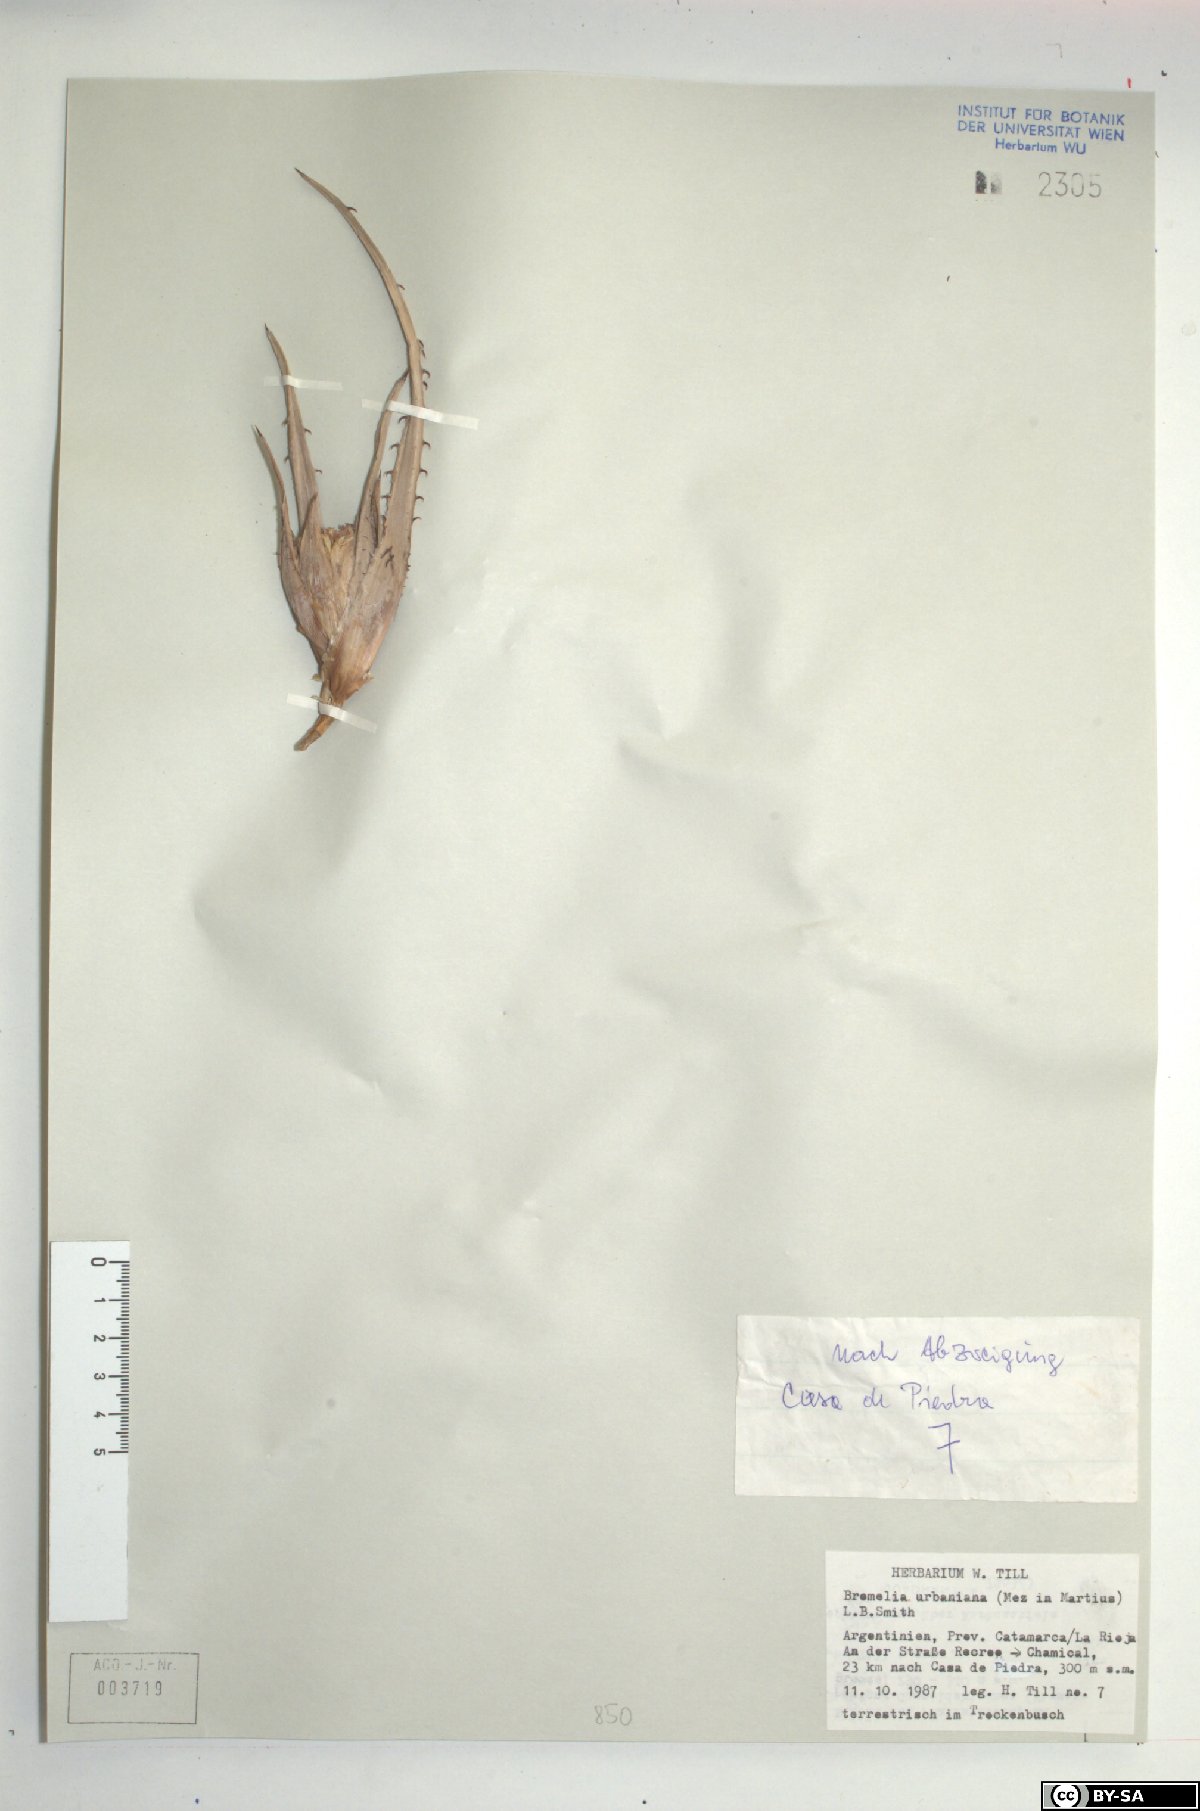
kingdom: Plantae
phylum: Tracheophyta
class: Liliopsida
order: Poales
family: Bromeliaceae
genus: Deinacanthon
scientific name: Deinacanthon urbanianum
